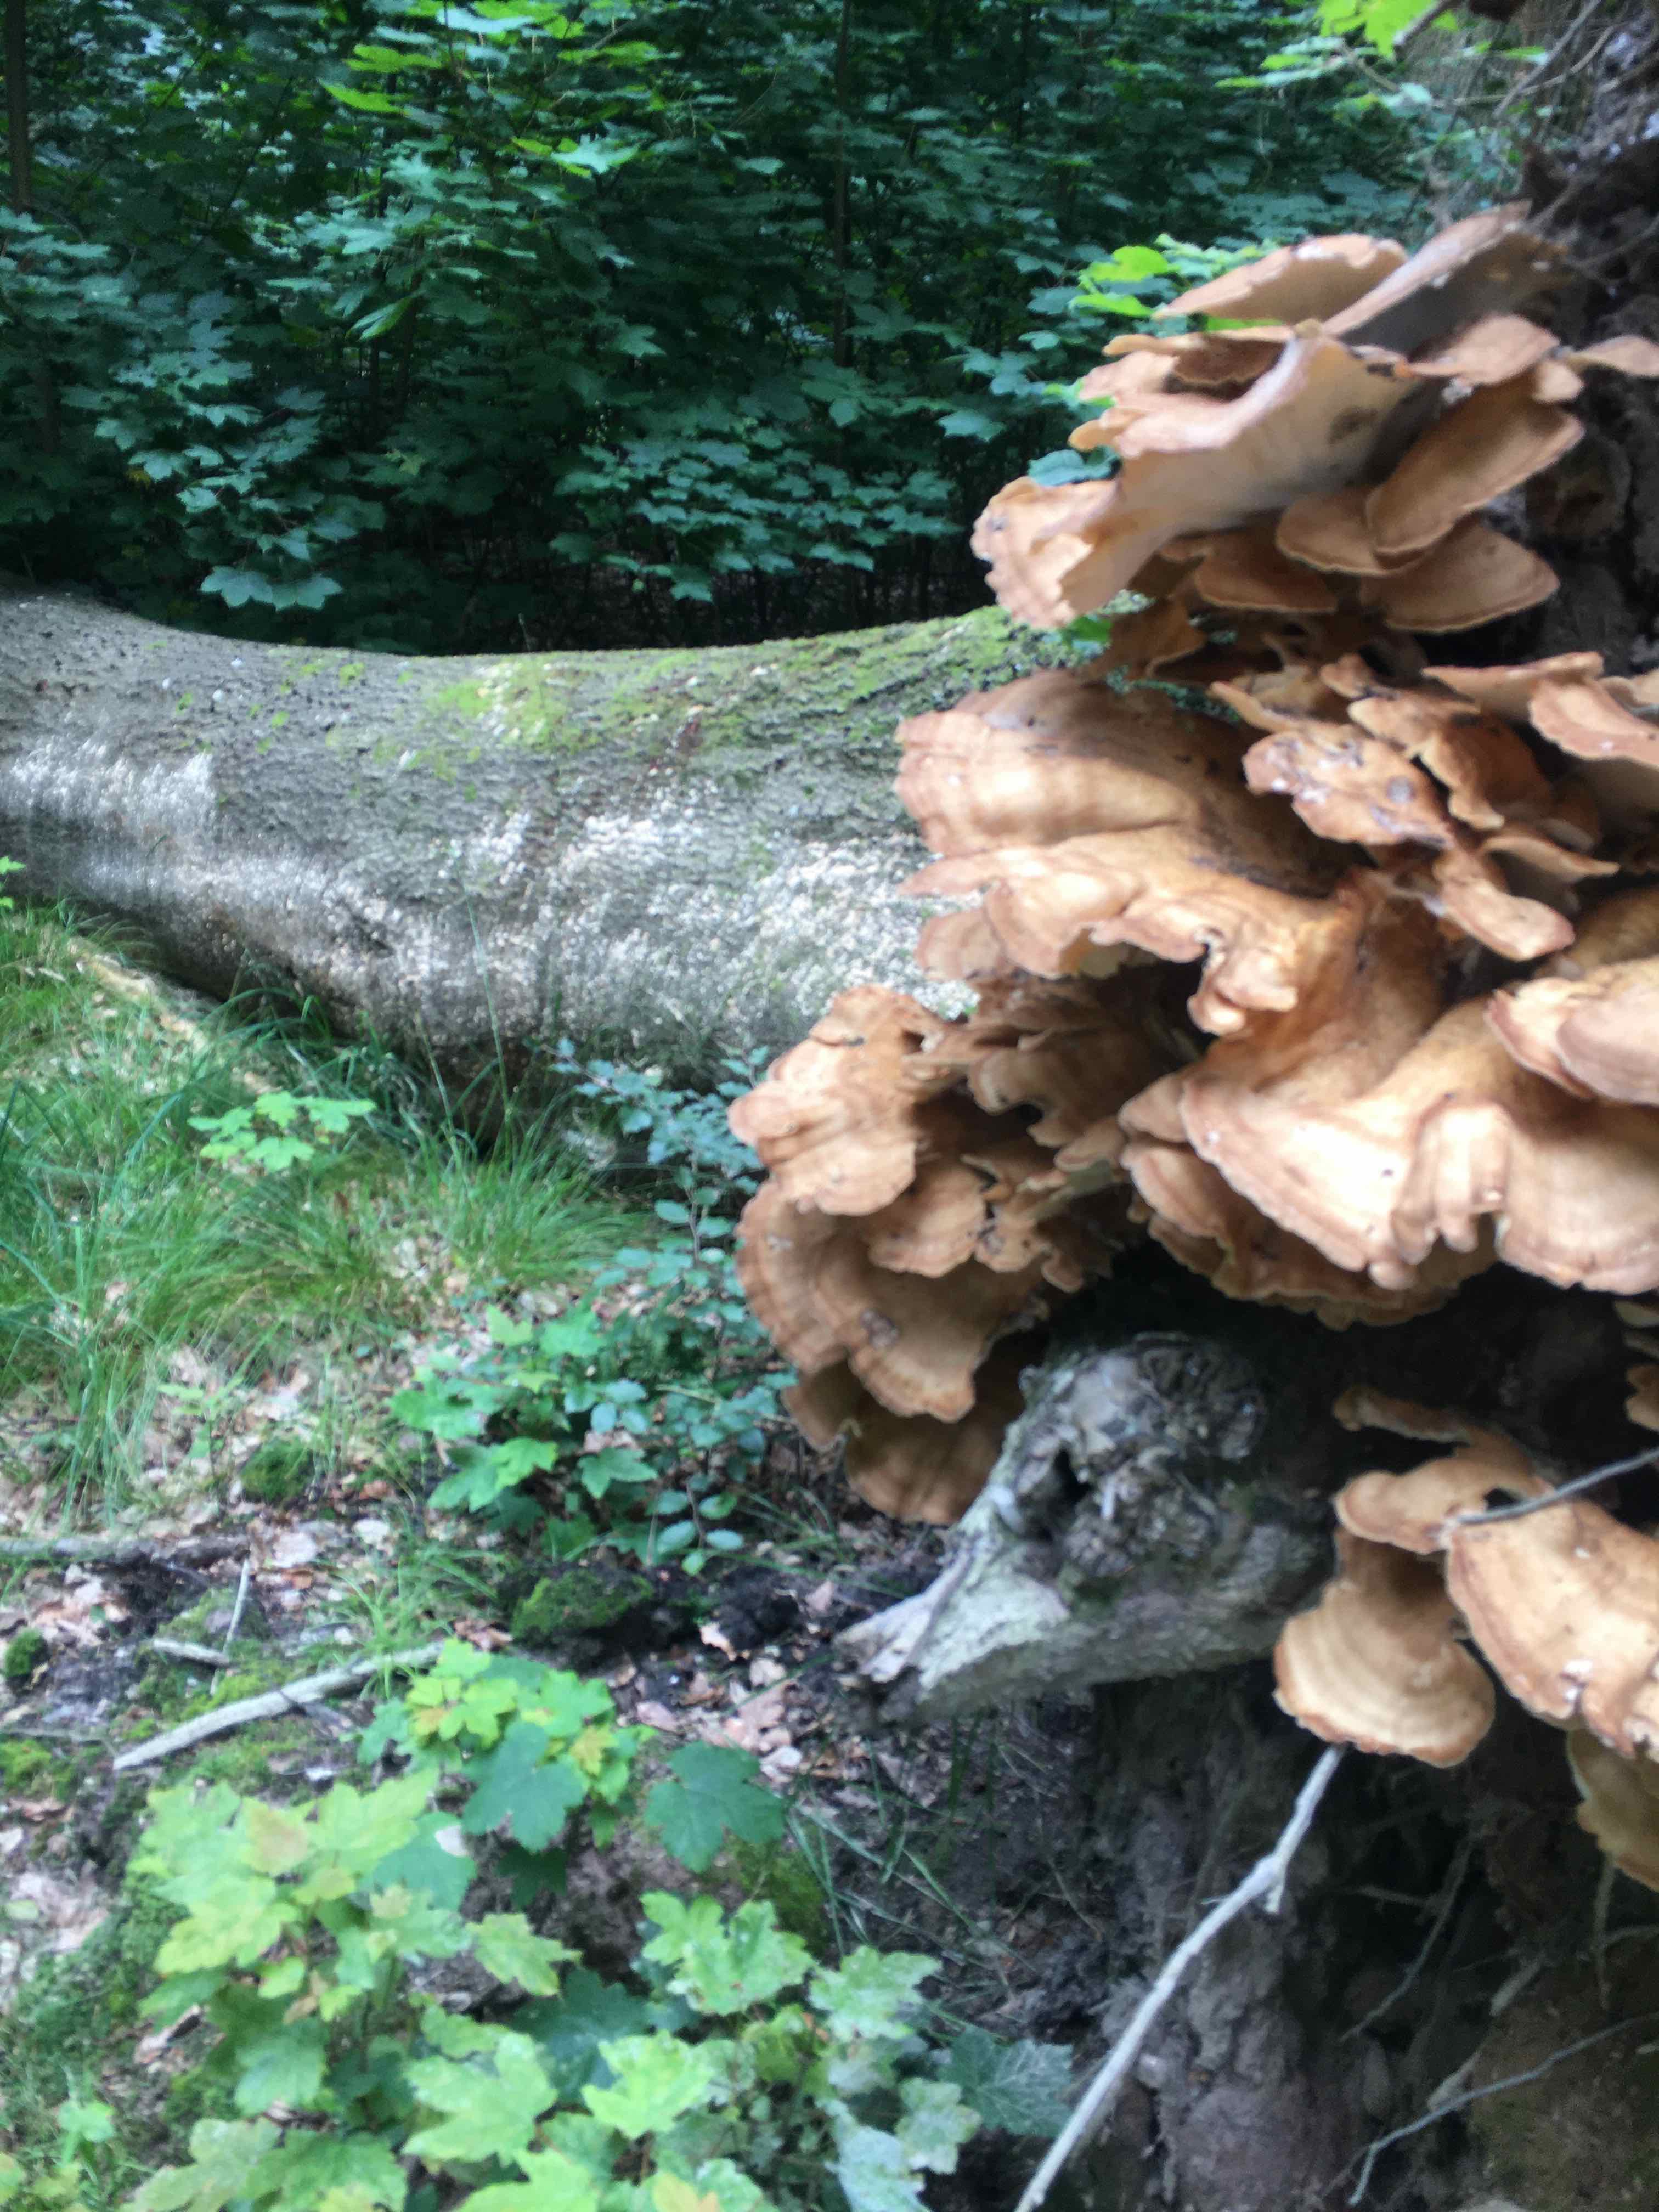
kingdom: Fungi
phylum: Basidiomycota
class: Agaricomycetes
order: Polyporales
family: Meripilaceae
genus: Meripilus
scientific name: Meripilus giganteus
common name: kæmpeporesvamp
